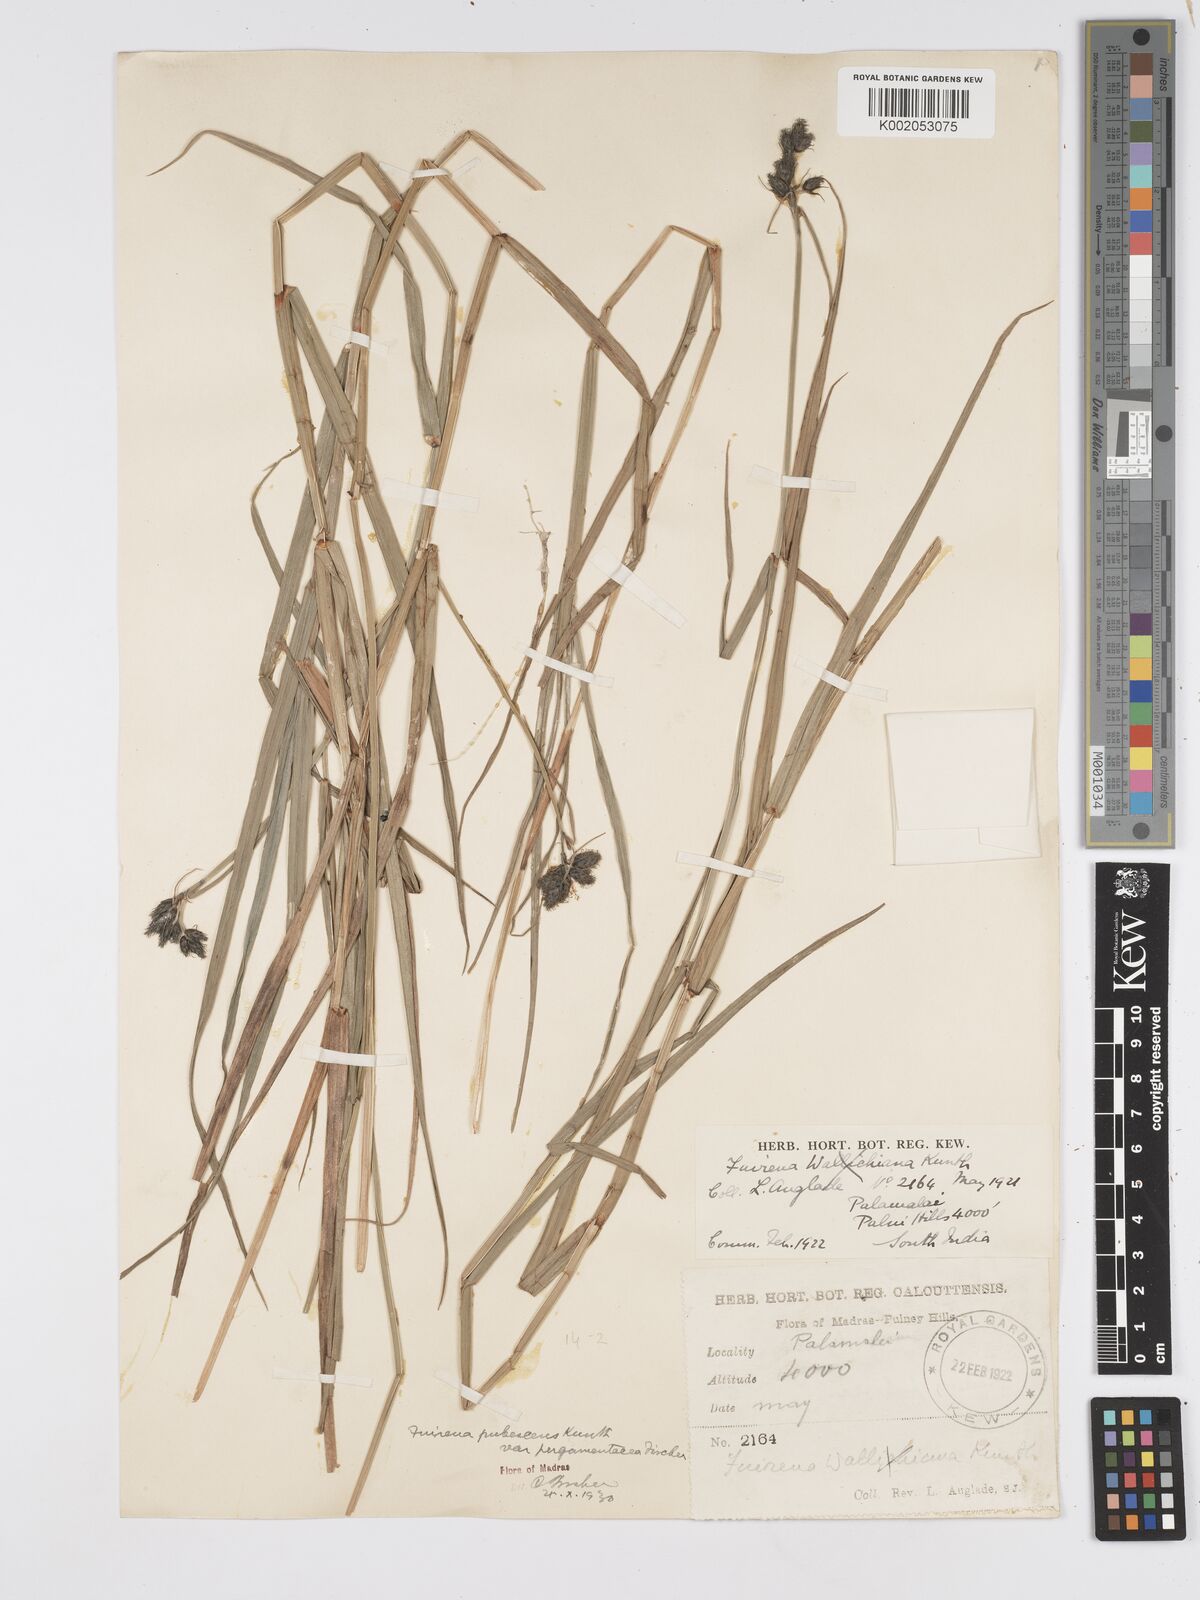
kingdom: Plantae
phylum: Tracheophyta
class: Liliopsida
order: Poales
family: Cyperaceae
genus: Fuirena
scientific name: Fuirena pubescens
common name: Hairy sedge
